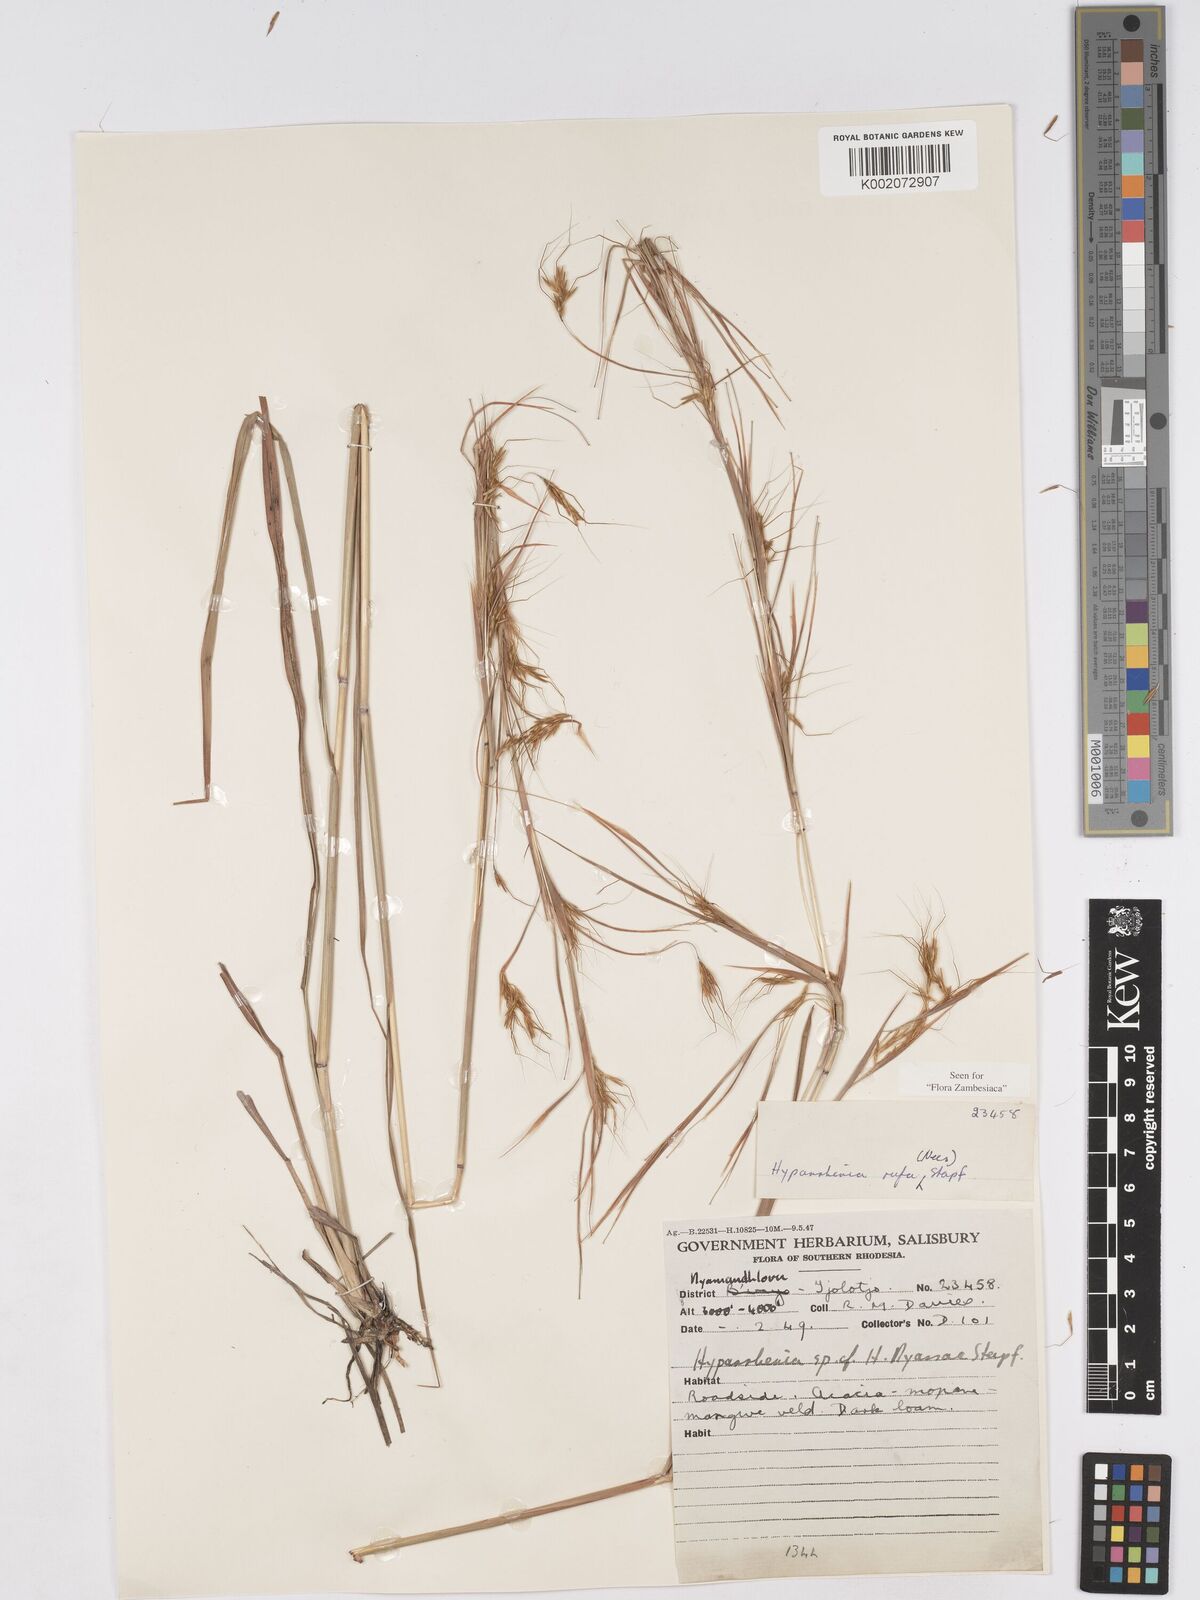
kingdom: Plantae
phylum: Tracheophyta
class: Liliopsida
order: Poales
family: Poaceae
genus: Hyparrhenia
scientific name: Hyparrhenia rufa
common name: Jaraguagrass
